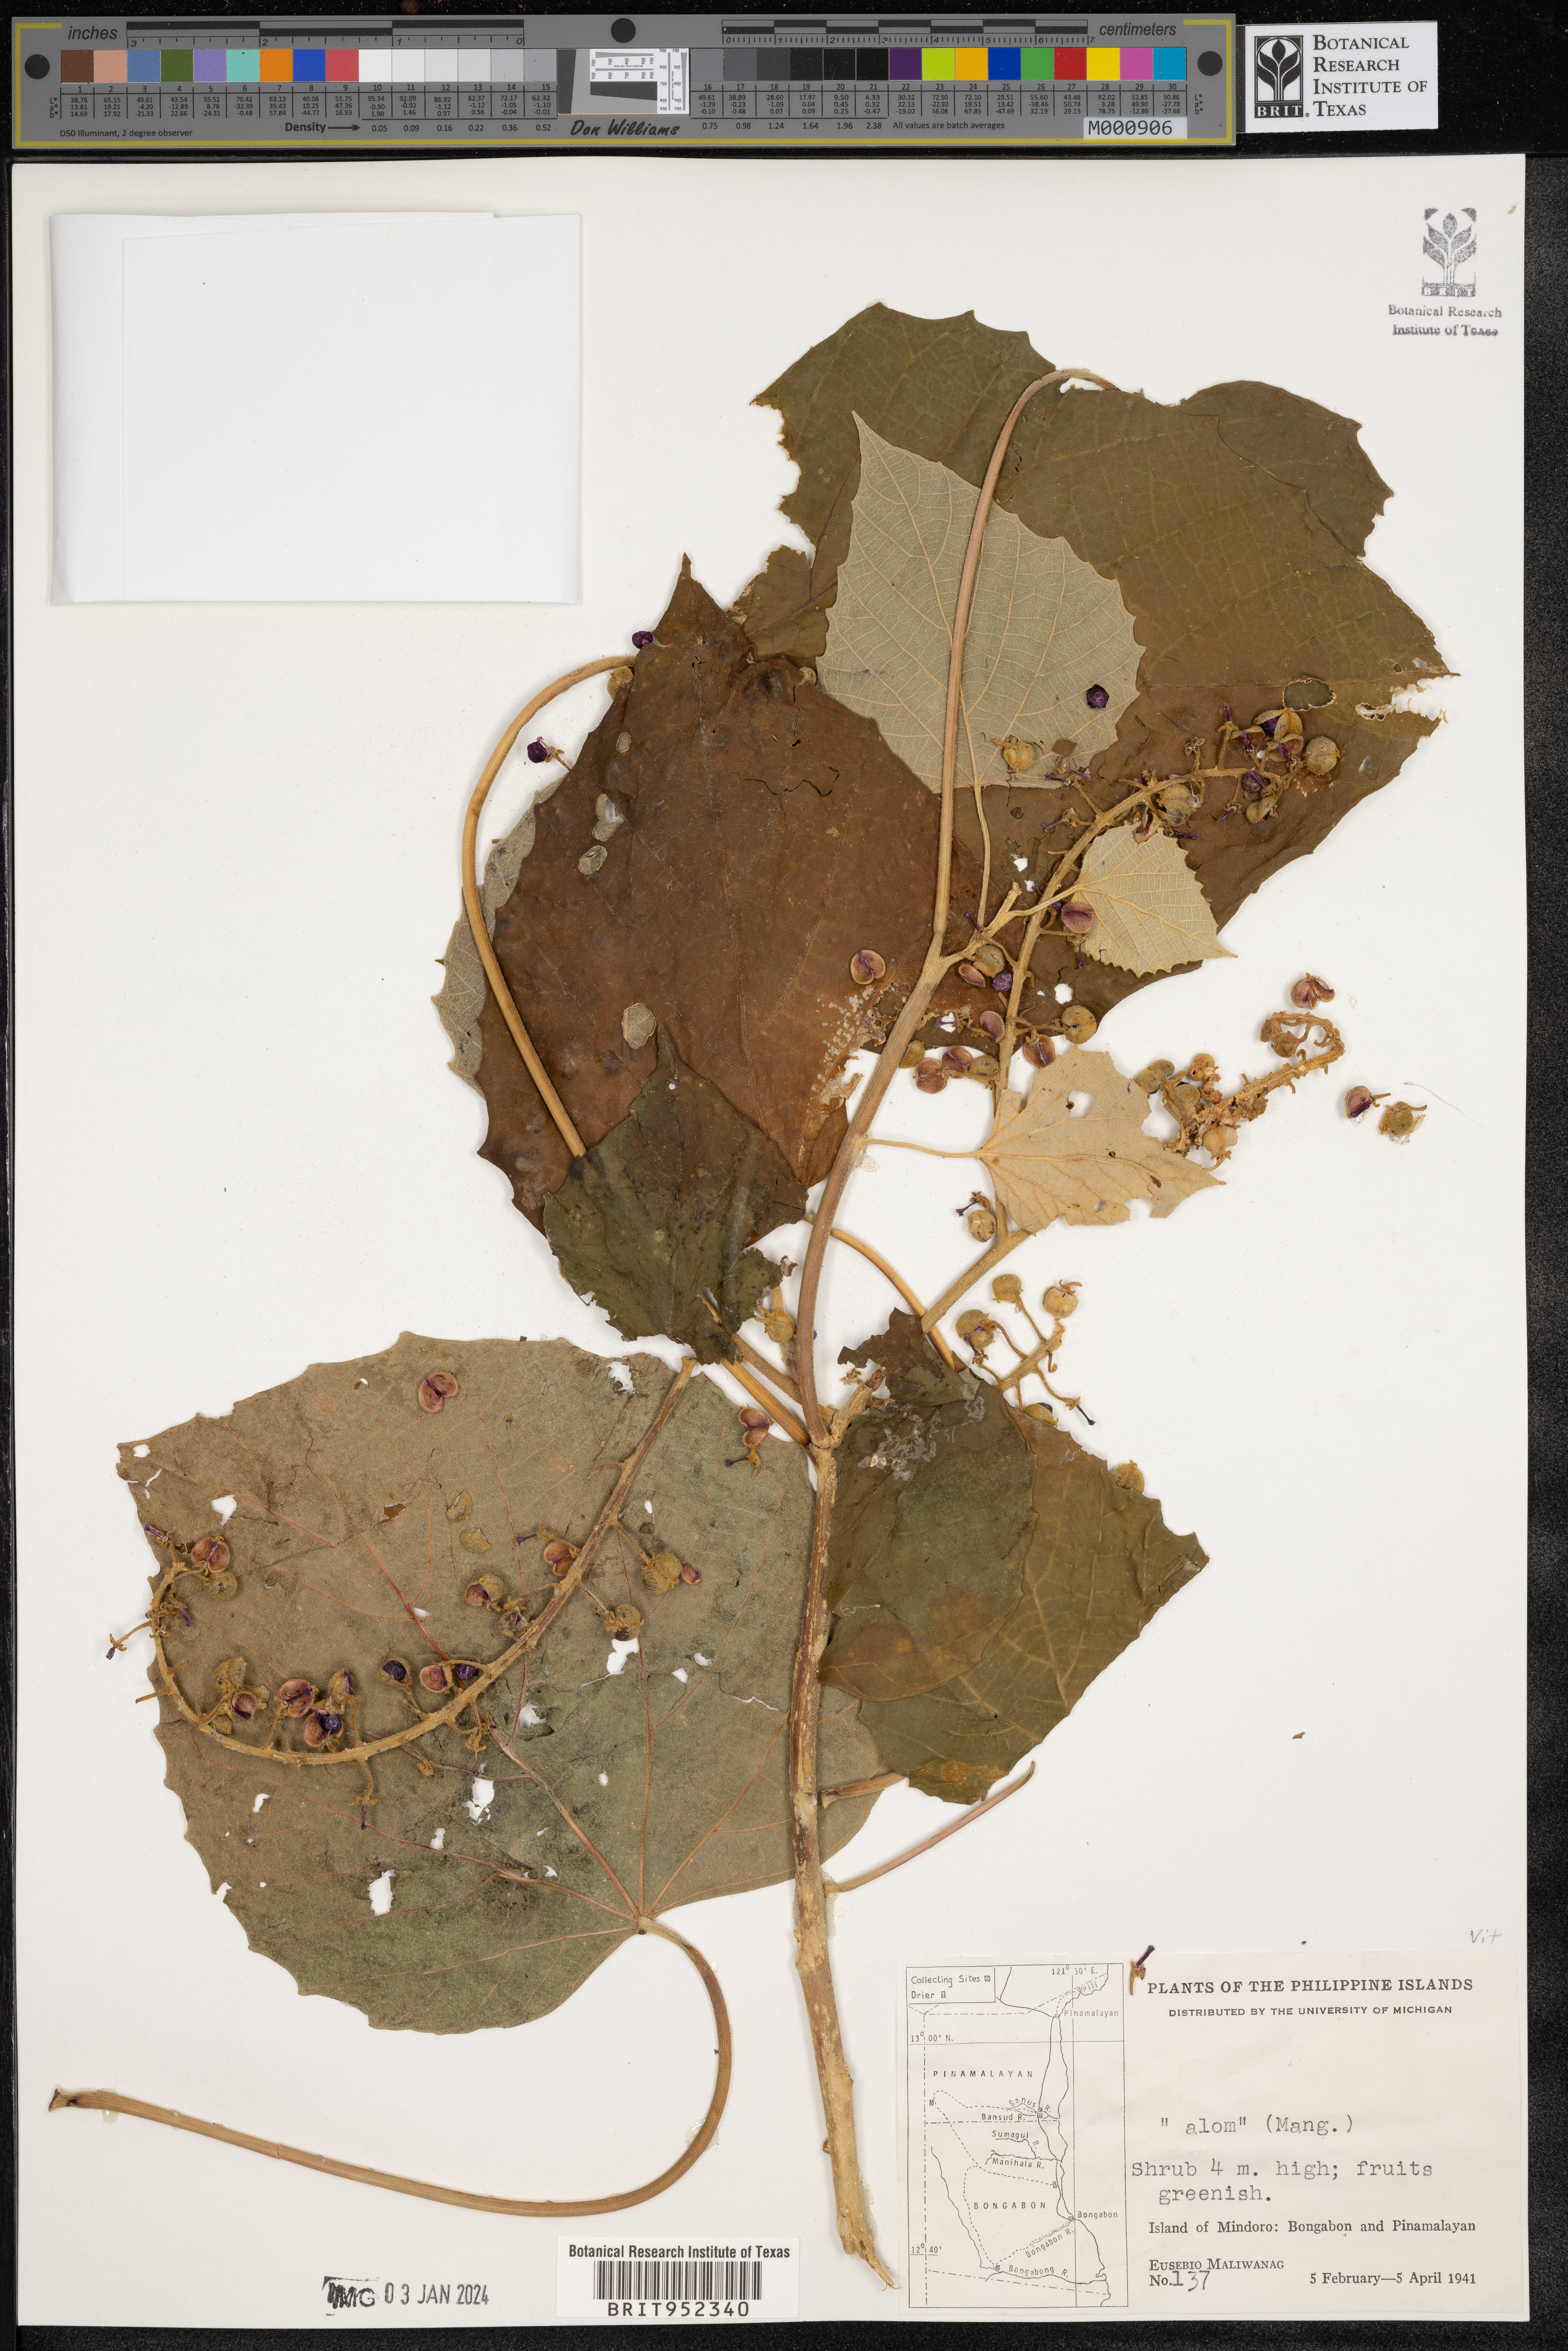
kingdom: Plantae
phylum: Tracheophyta
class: Magnoliopsida
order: Vitales
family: Vitaceae
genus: Vitis
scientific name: Vitis
